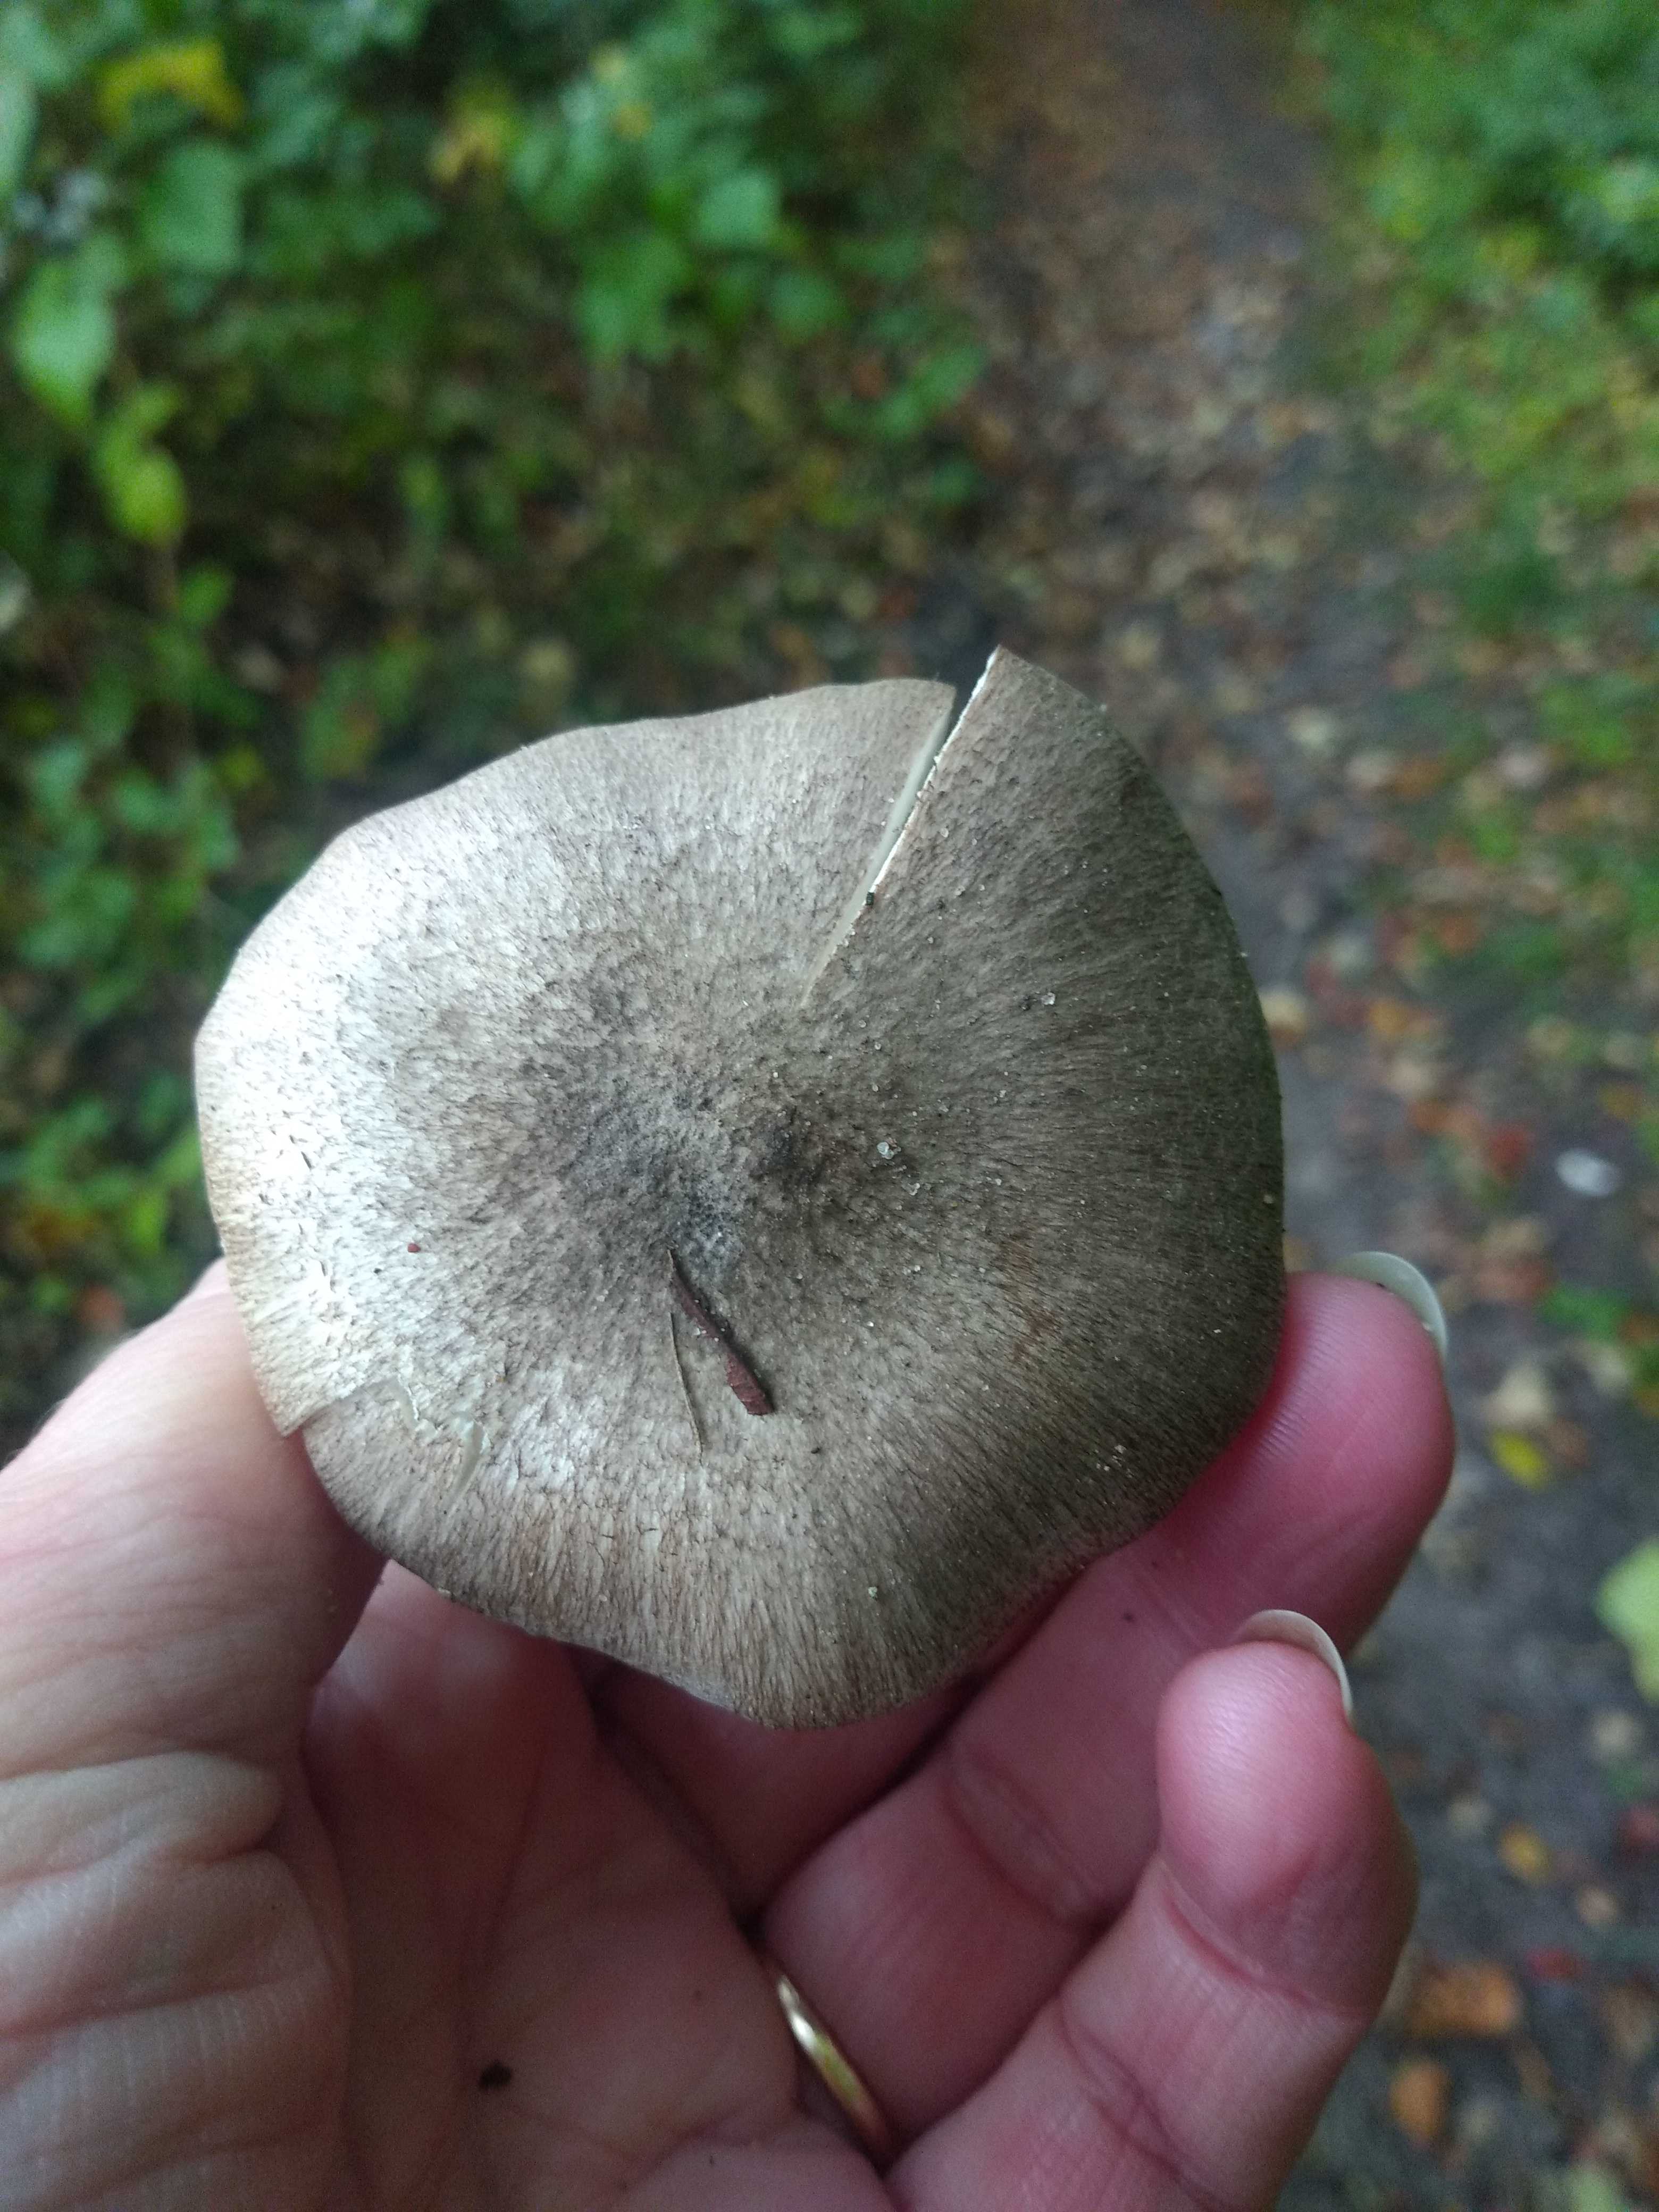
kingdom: Fungi
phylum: Basidiomycota
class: Agaricomycetes
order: Agaricales
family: Tricholomataceae
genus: Tricholoma
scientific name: Tricholoma scalpturatum
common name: gulplettet ridderhat
